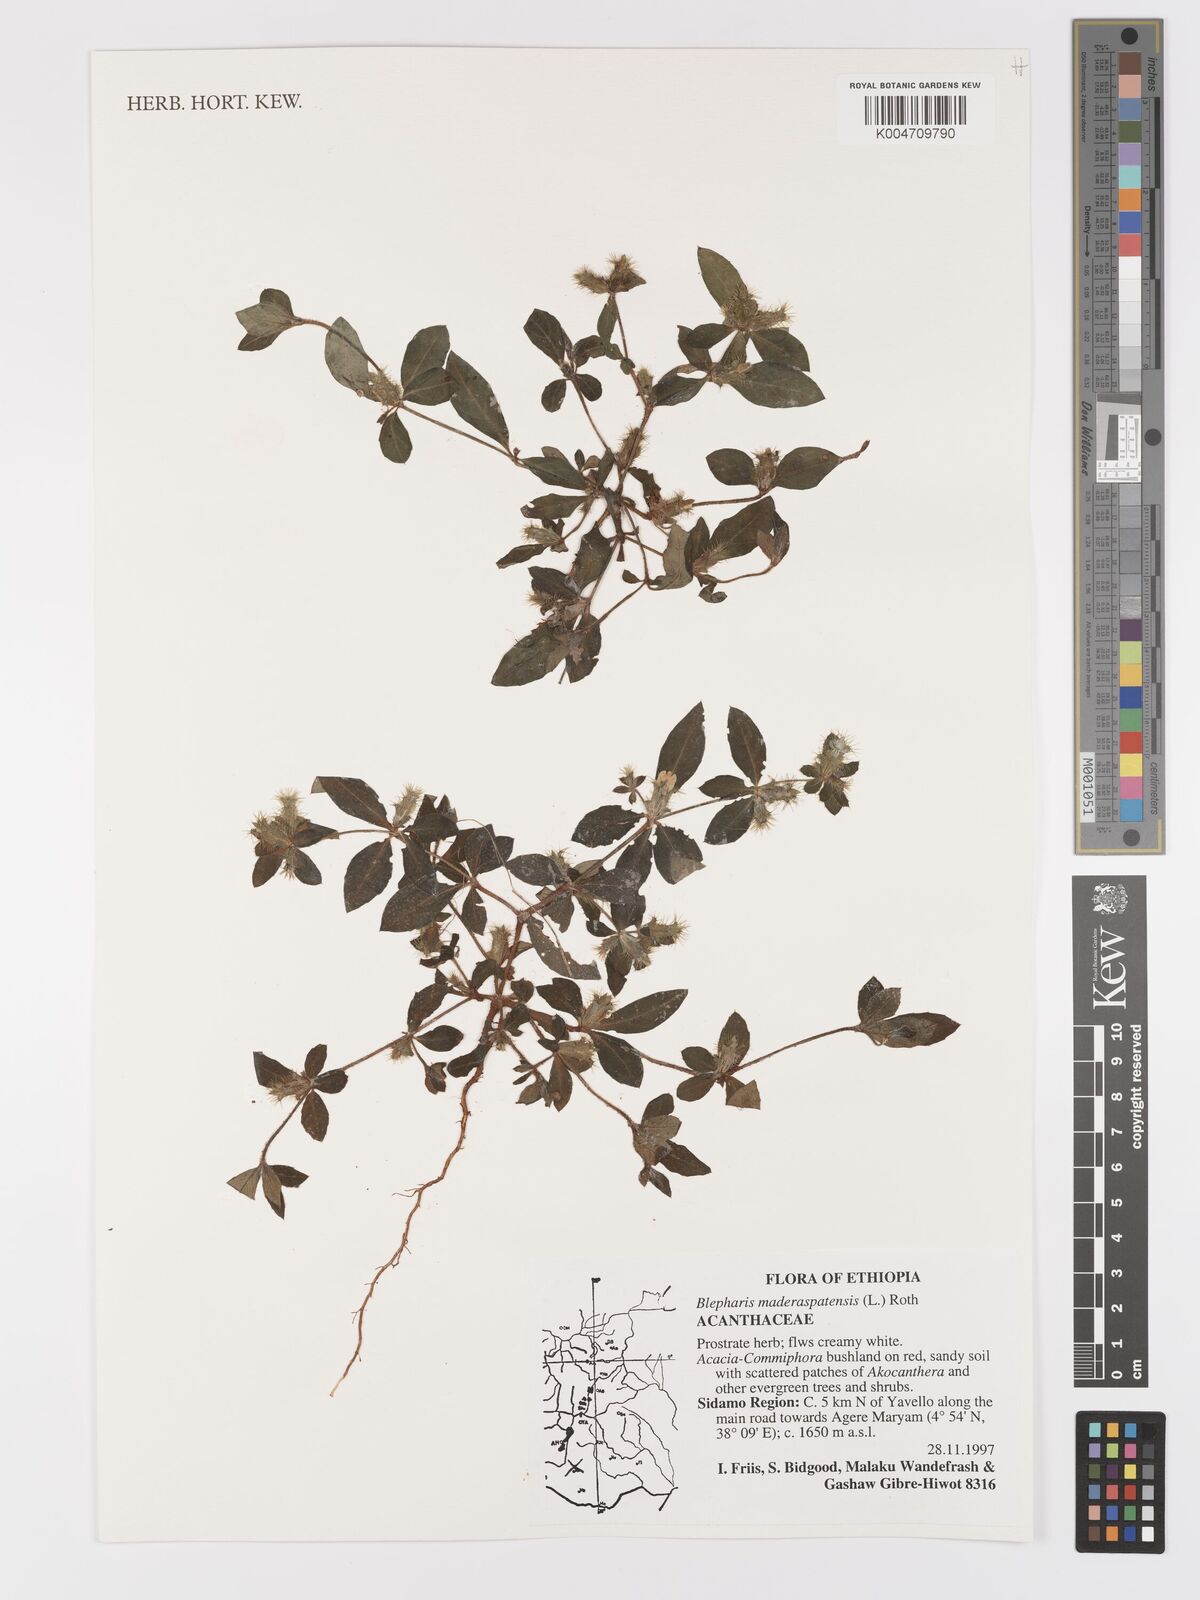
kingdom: Plantae
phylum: Tracheophyta
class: Magnoliopsida
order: Lamiales
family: Acanthaceae
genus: Blepharis
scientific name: Blepharis maderaspatensis
